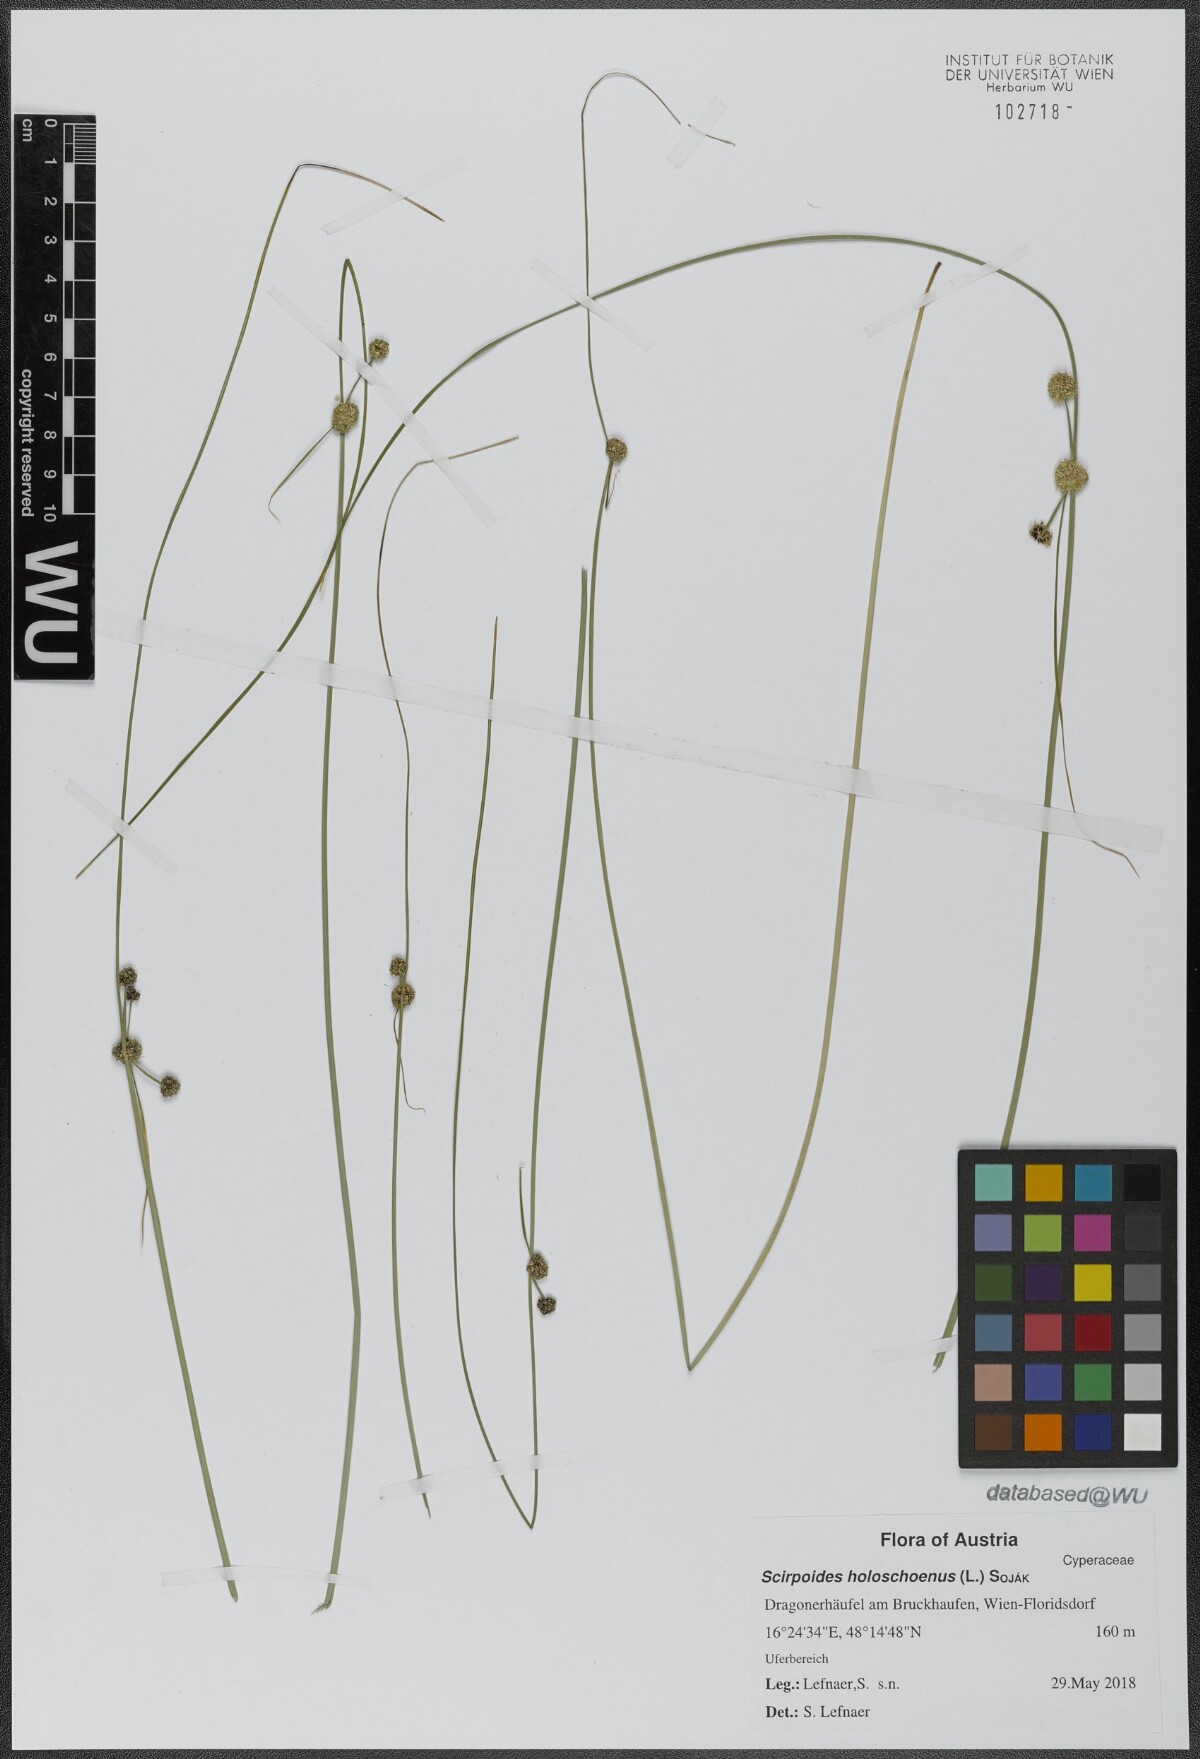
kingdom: Plantae
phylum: Tracheophyta
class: Liliopsida
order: Poales
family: Cyperaceae
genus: Scirpoides
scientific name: Scirpoides holoschoenus
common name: Round-headed club-rush
